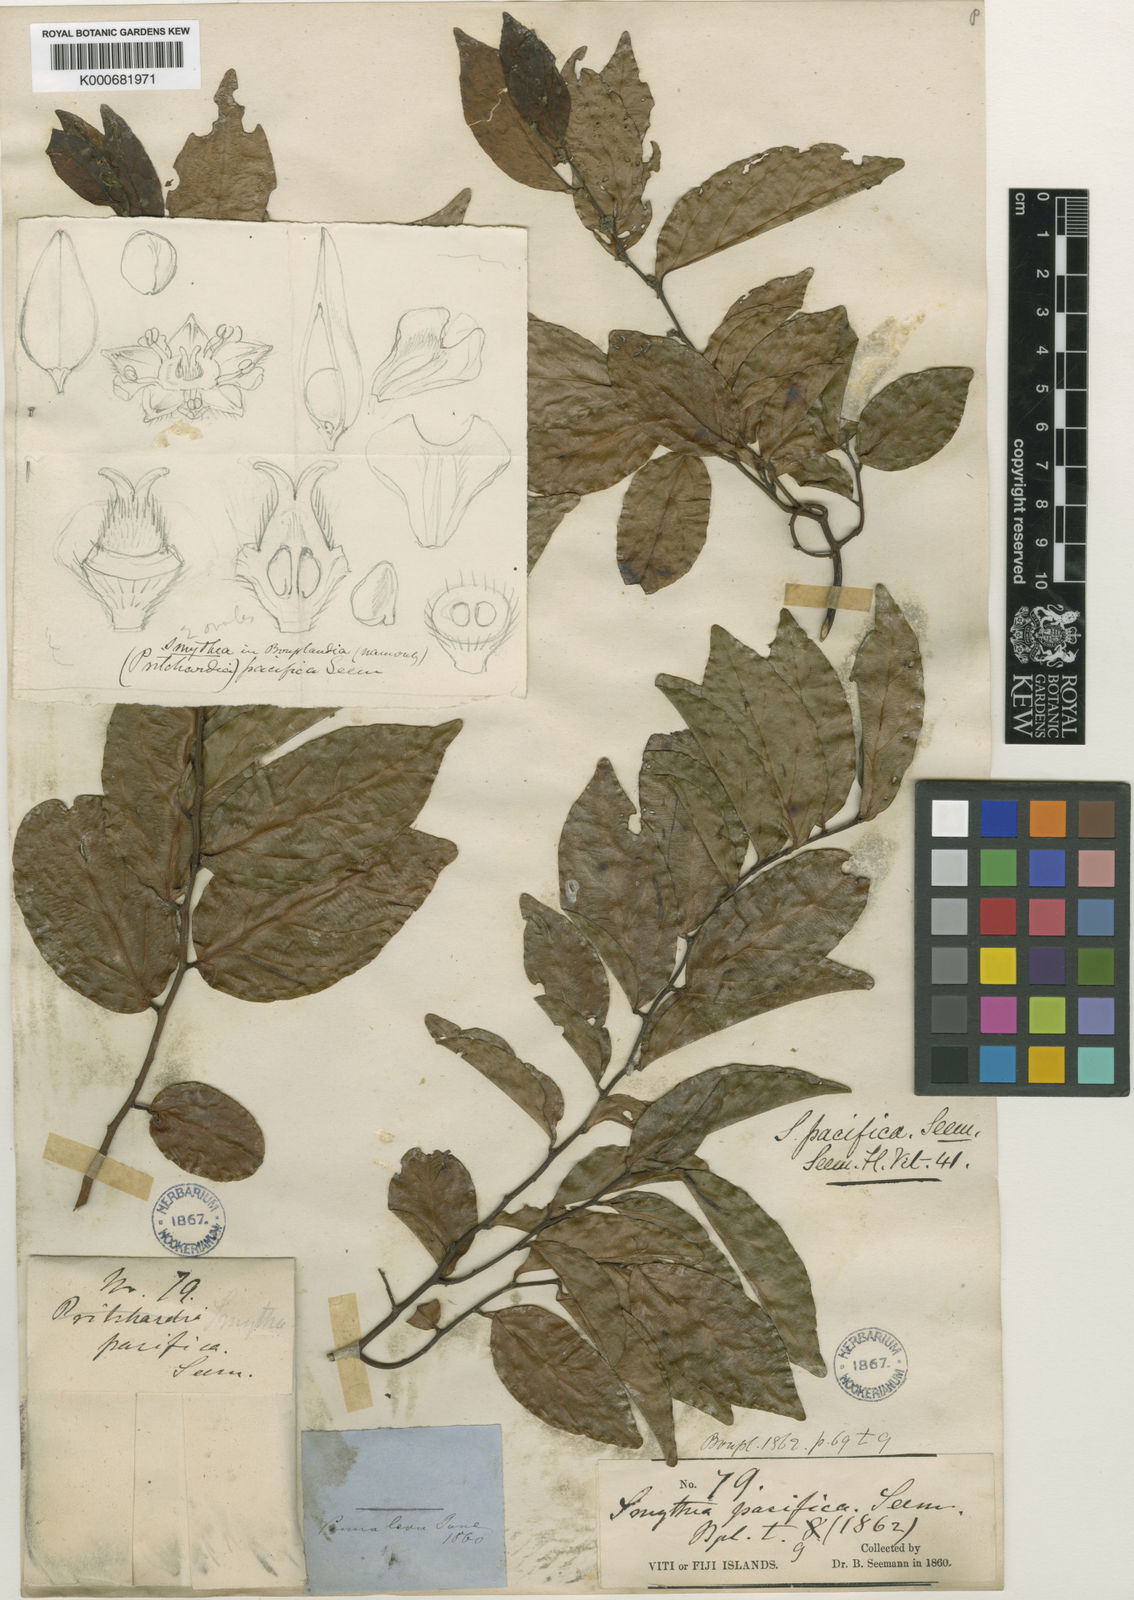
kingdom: Plantae
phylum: Tracheophyta
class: Magnoliopsida
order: Rosales
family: Rhamnaceae
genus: Smythea
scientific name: Smythea lanceata
